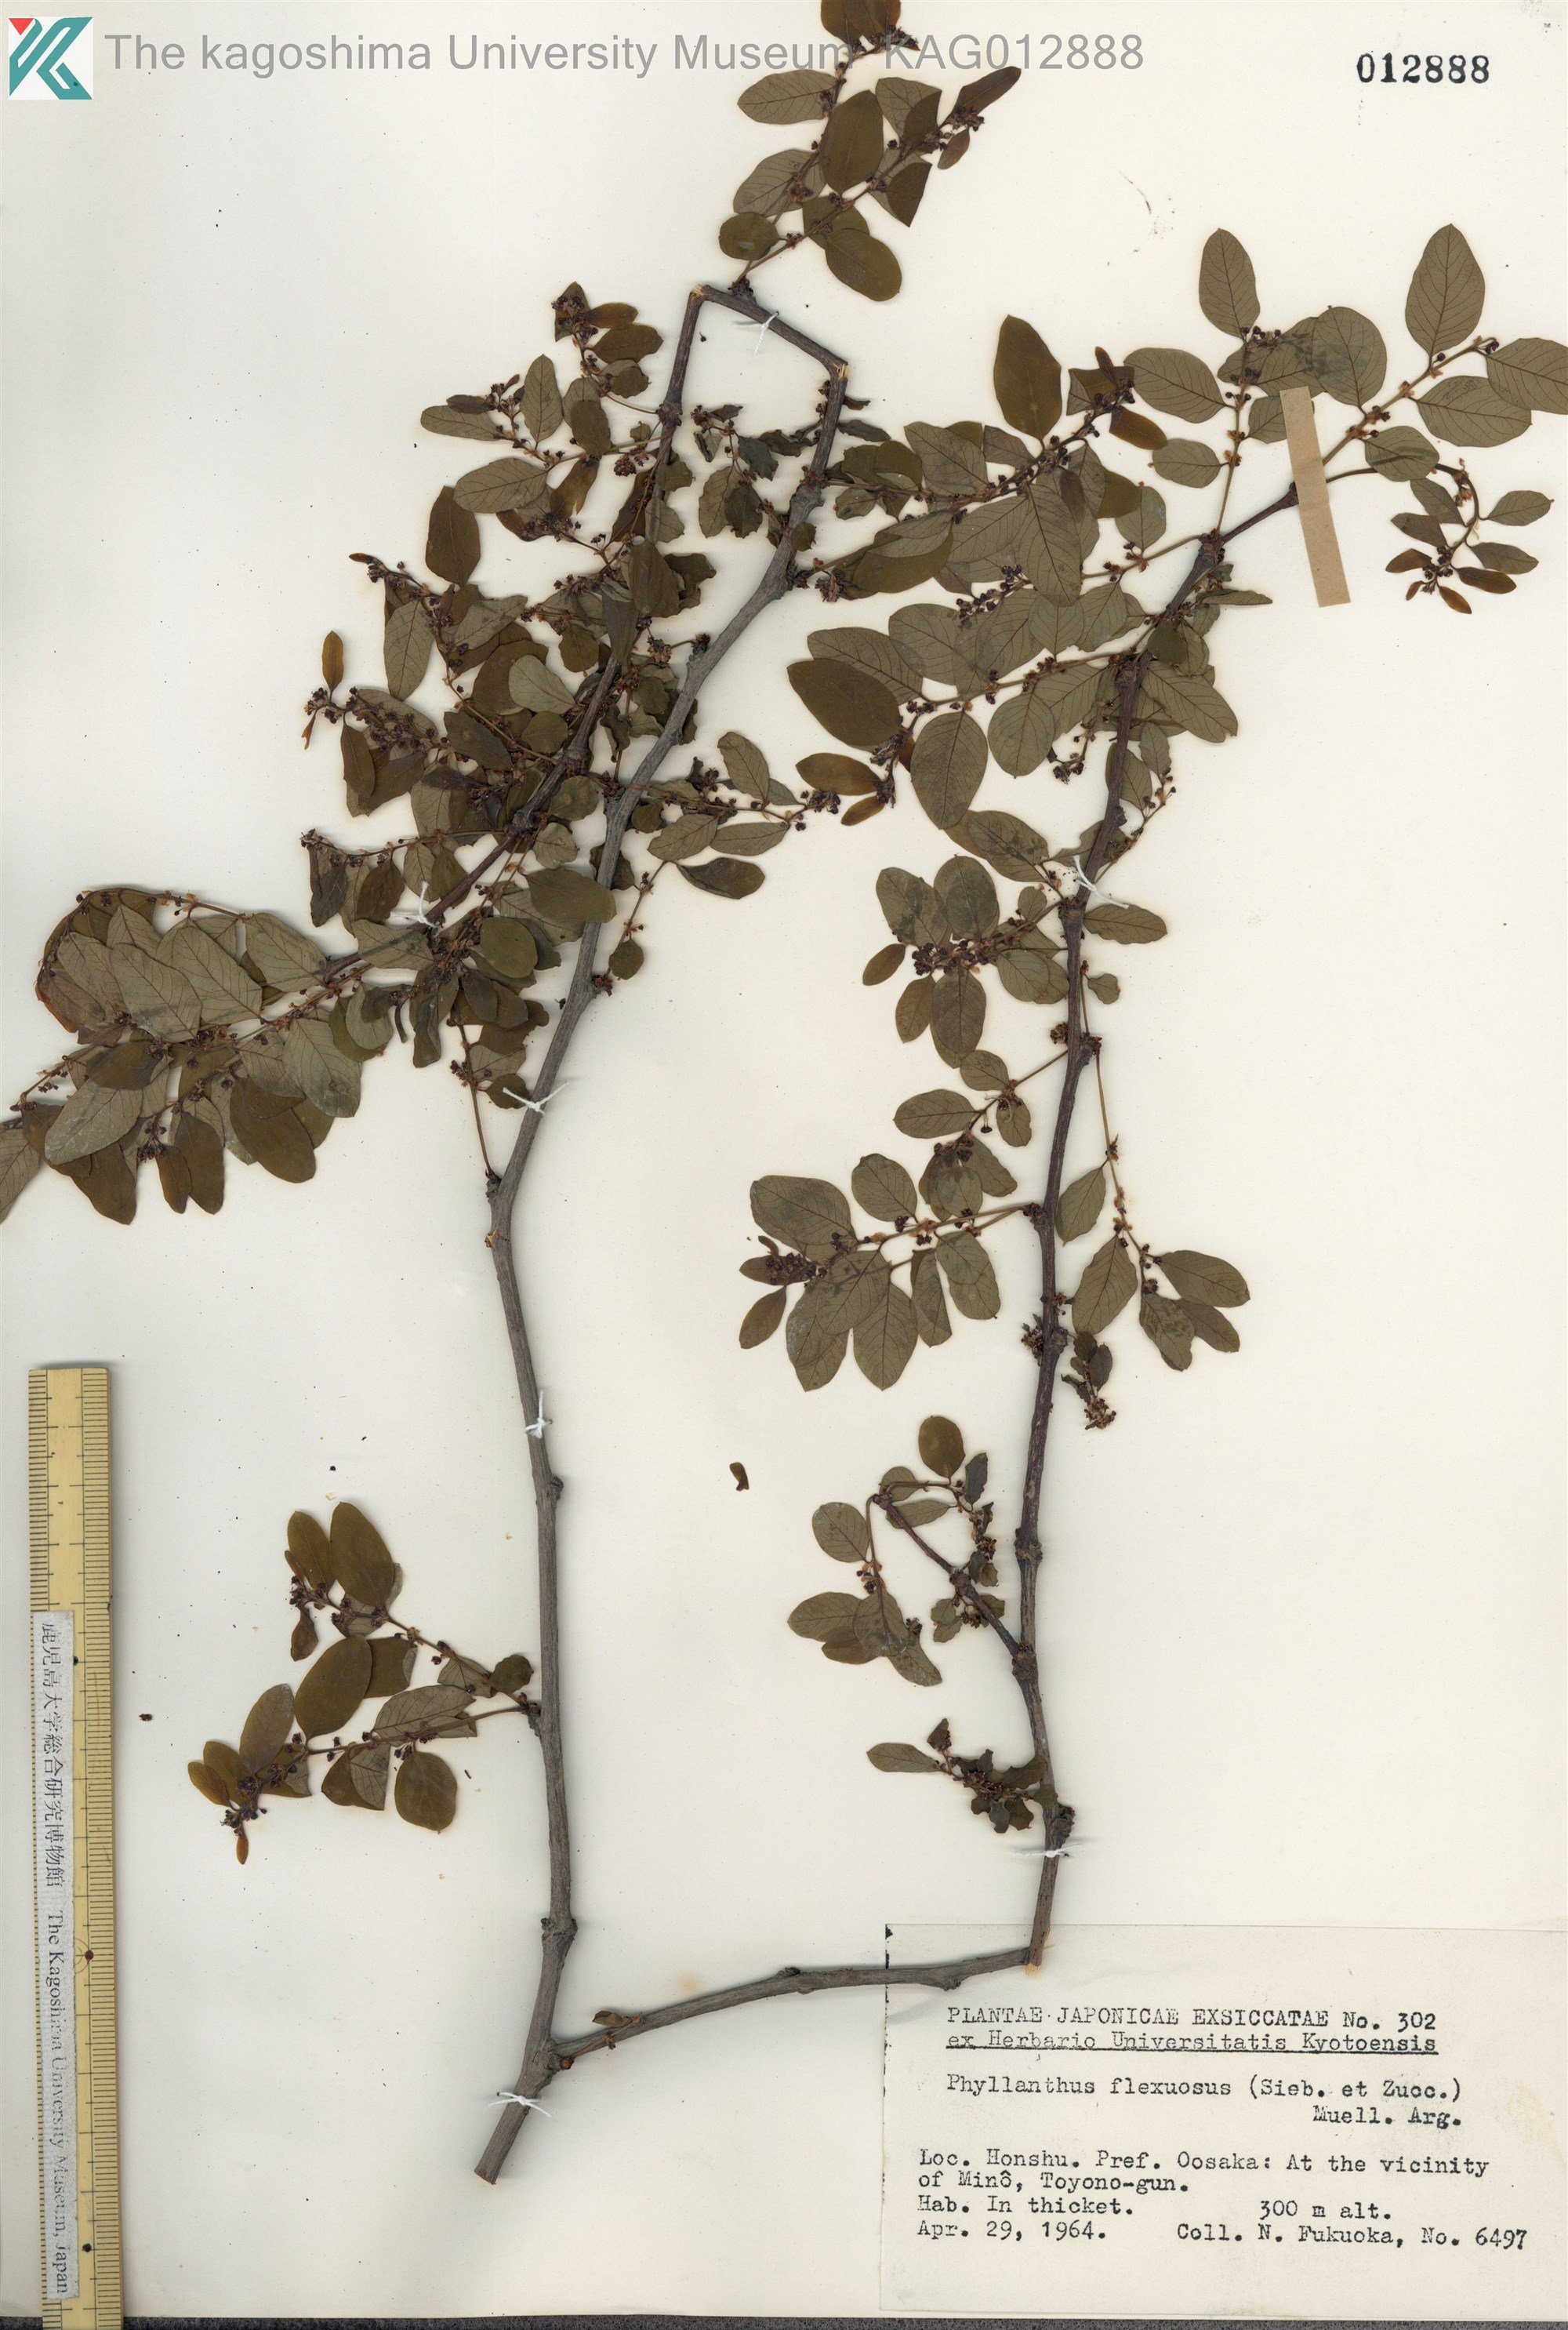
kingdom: Plantae
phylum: Tracheophyta
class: Magnoliopsida
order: Malpighiales
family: Phyllanthaceae
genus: Phyllanthus
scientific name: Phyllanthus flexuosus
